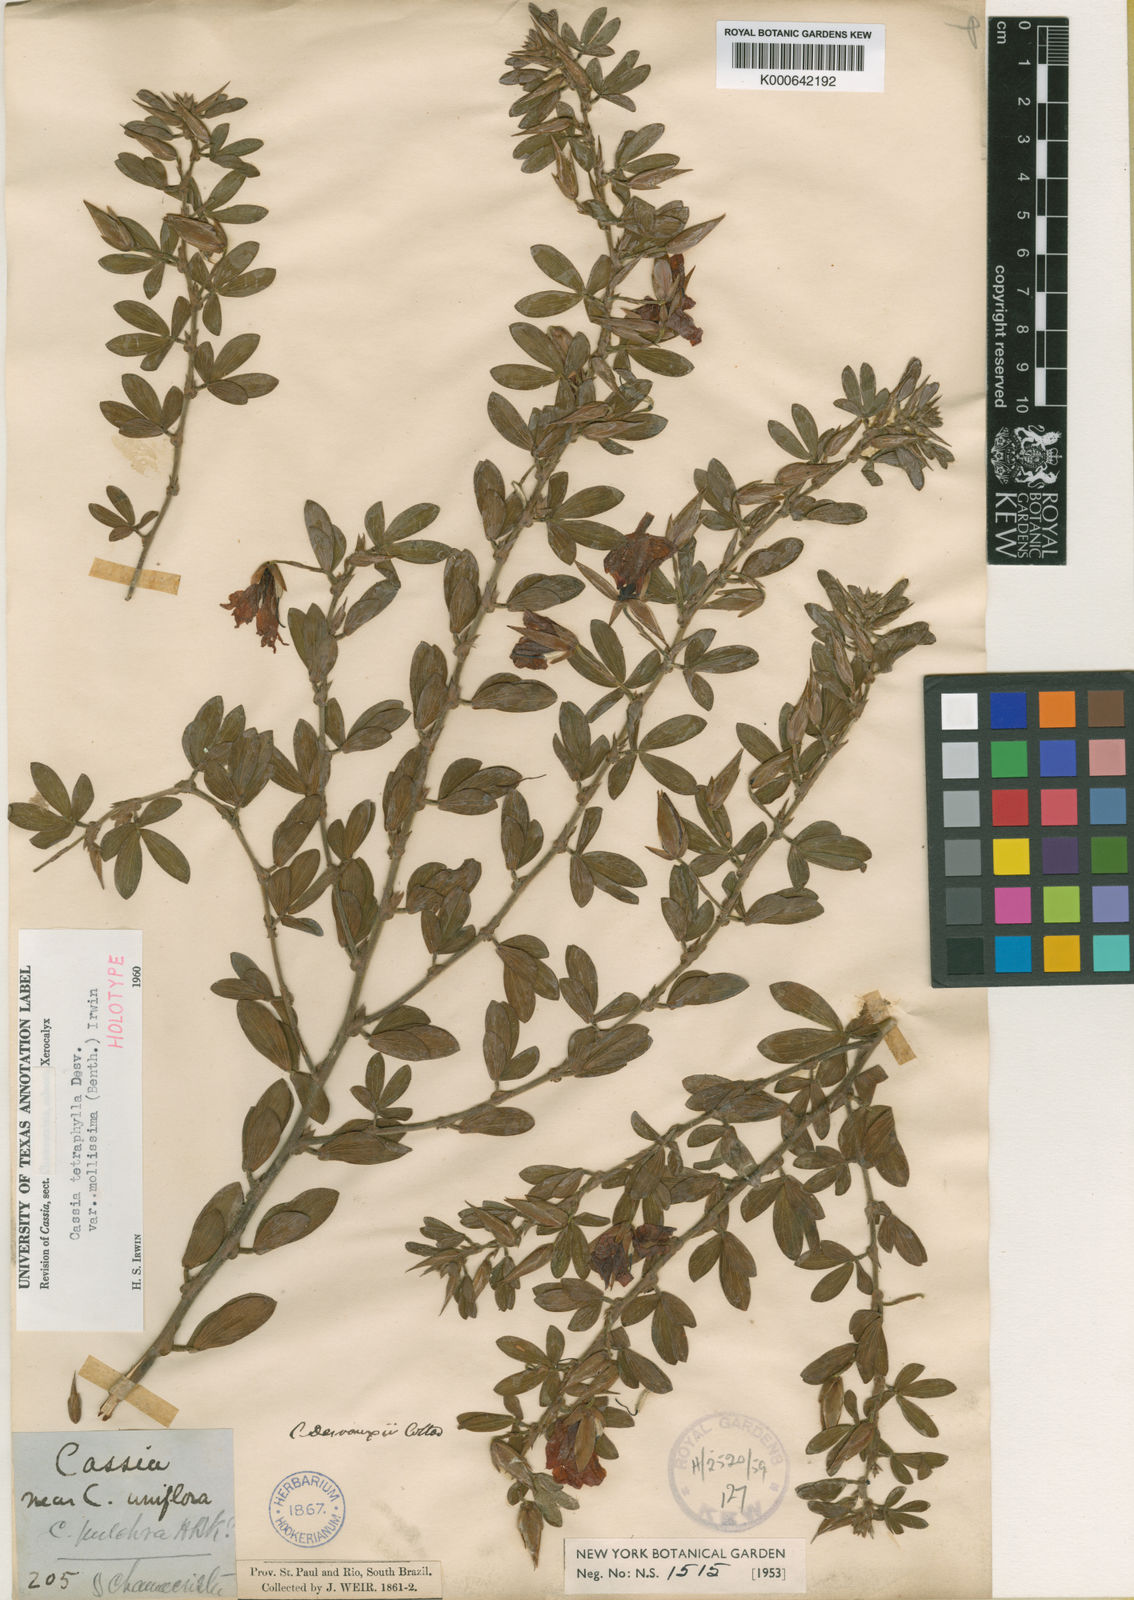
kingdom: Plantae
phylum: Tracheophyta
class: Magnoliopsida
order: Fabales
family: Fabaceae
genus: Chamaecrista
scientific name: Chamaecrista desvauxii
